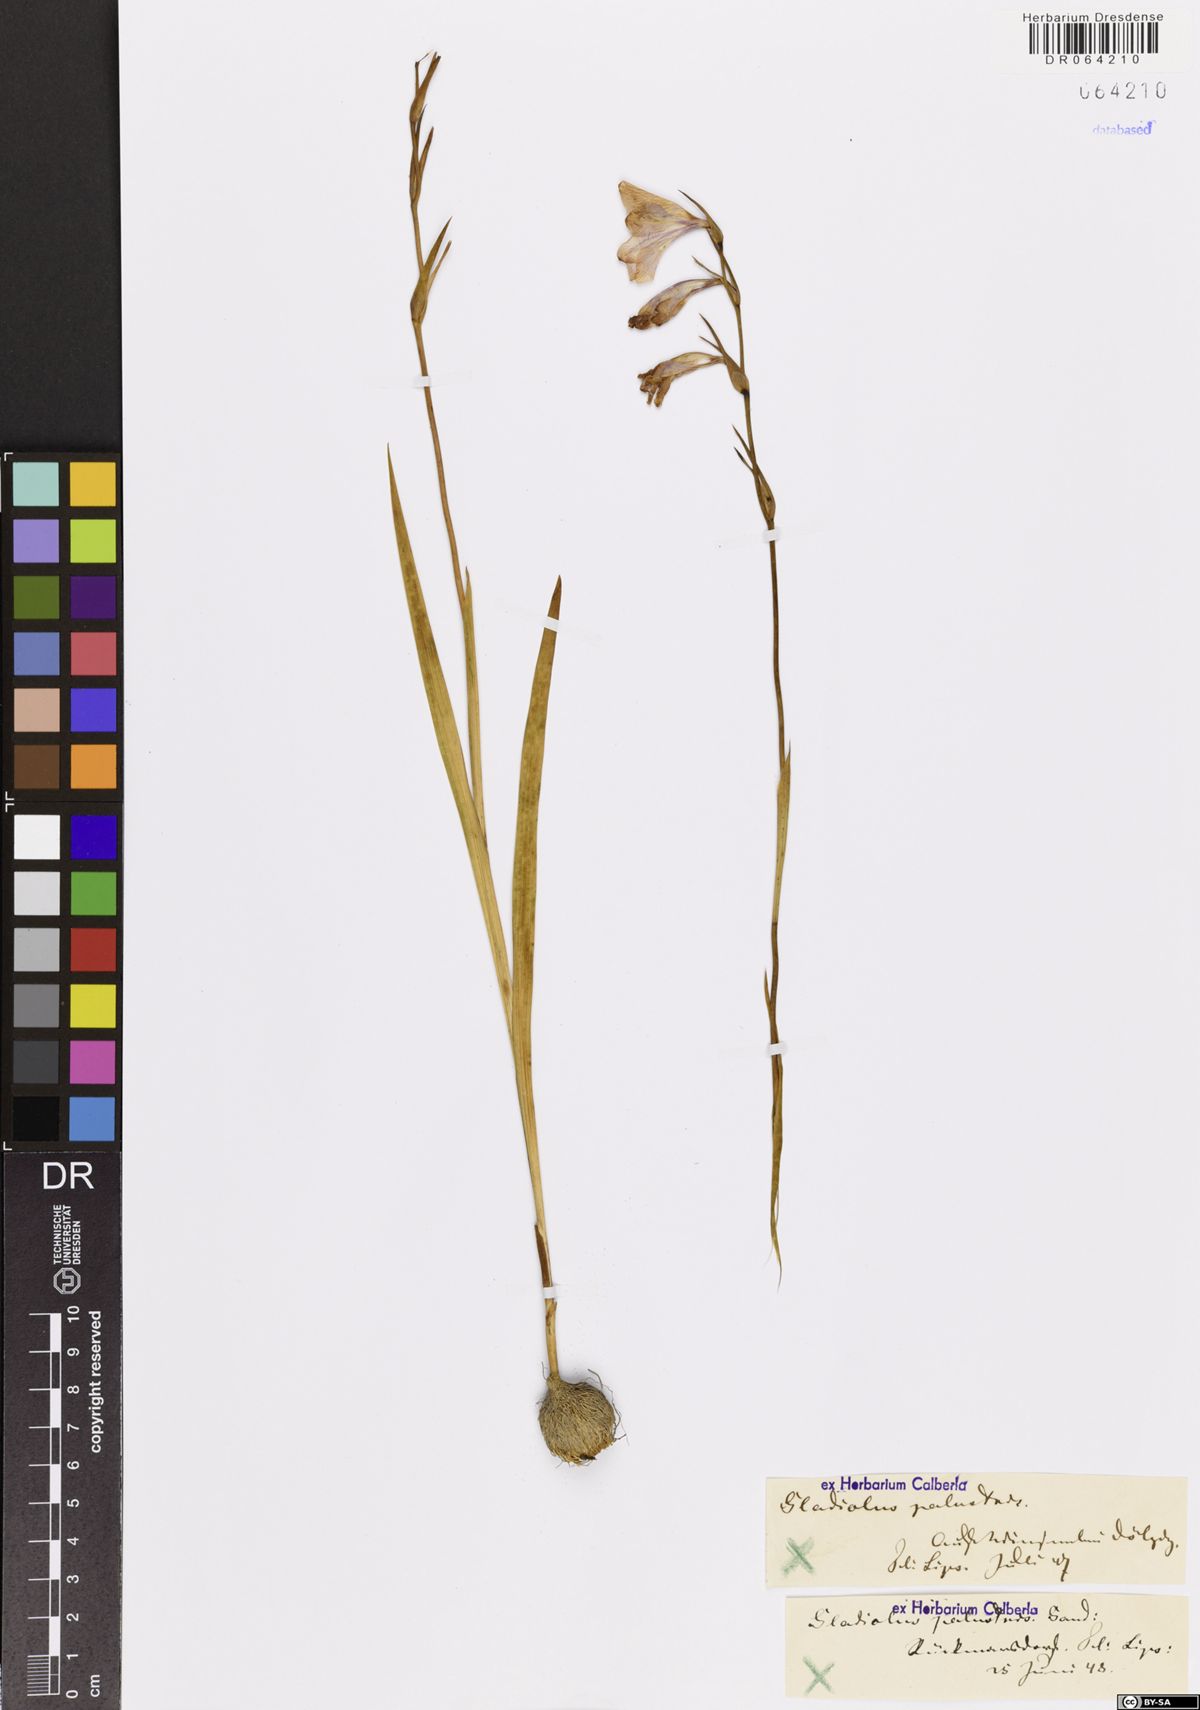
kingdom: Plantae
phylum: Tracheophyta
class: Liliopsida
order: Asparagales
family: Iridaceae
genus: Gladiolus
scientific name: Gladiolus palustris
